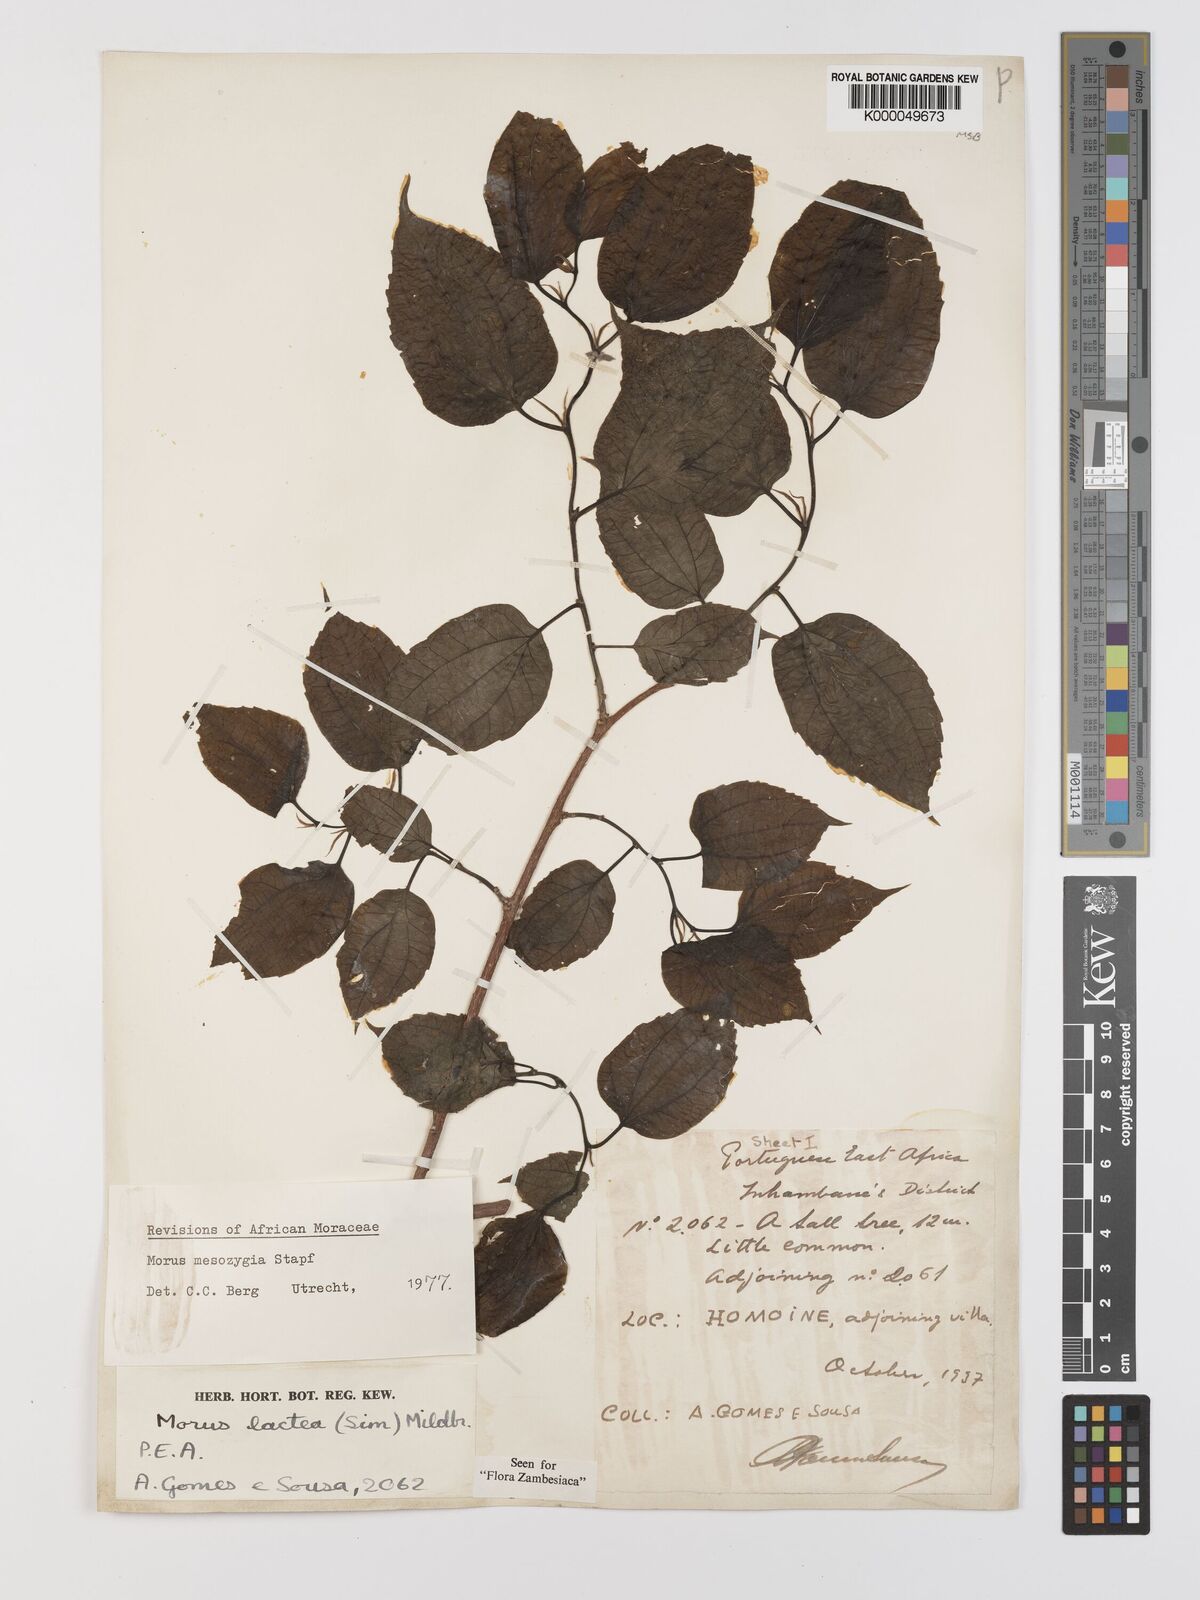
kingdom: Plantae
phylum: Tracheophyta
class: Magnoliopsida
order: Rosales
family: Moraceae
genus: Afromorus
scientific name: Afromorus mesozygia
